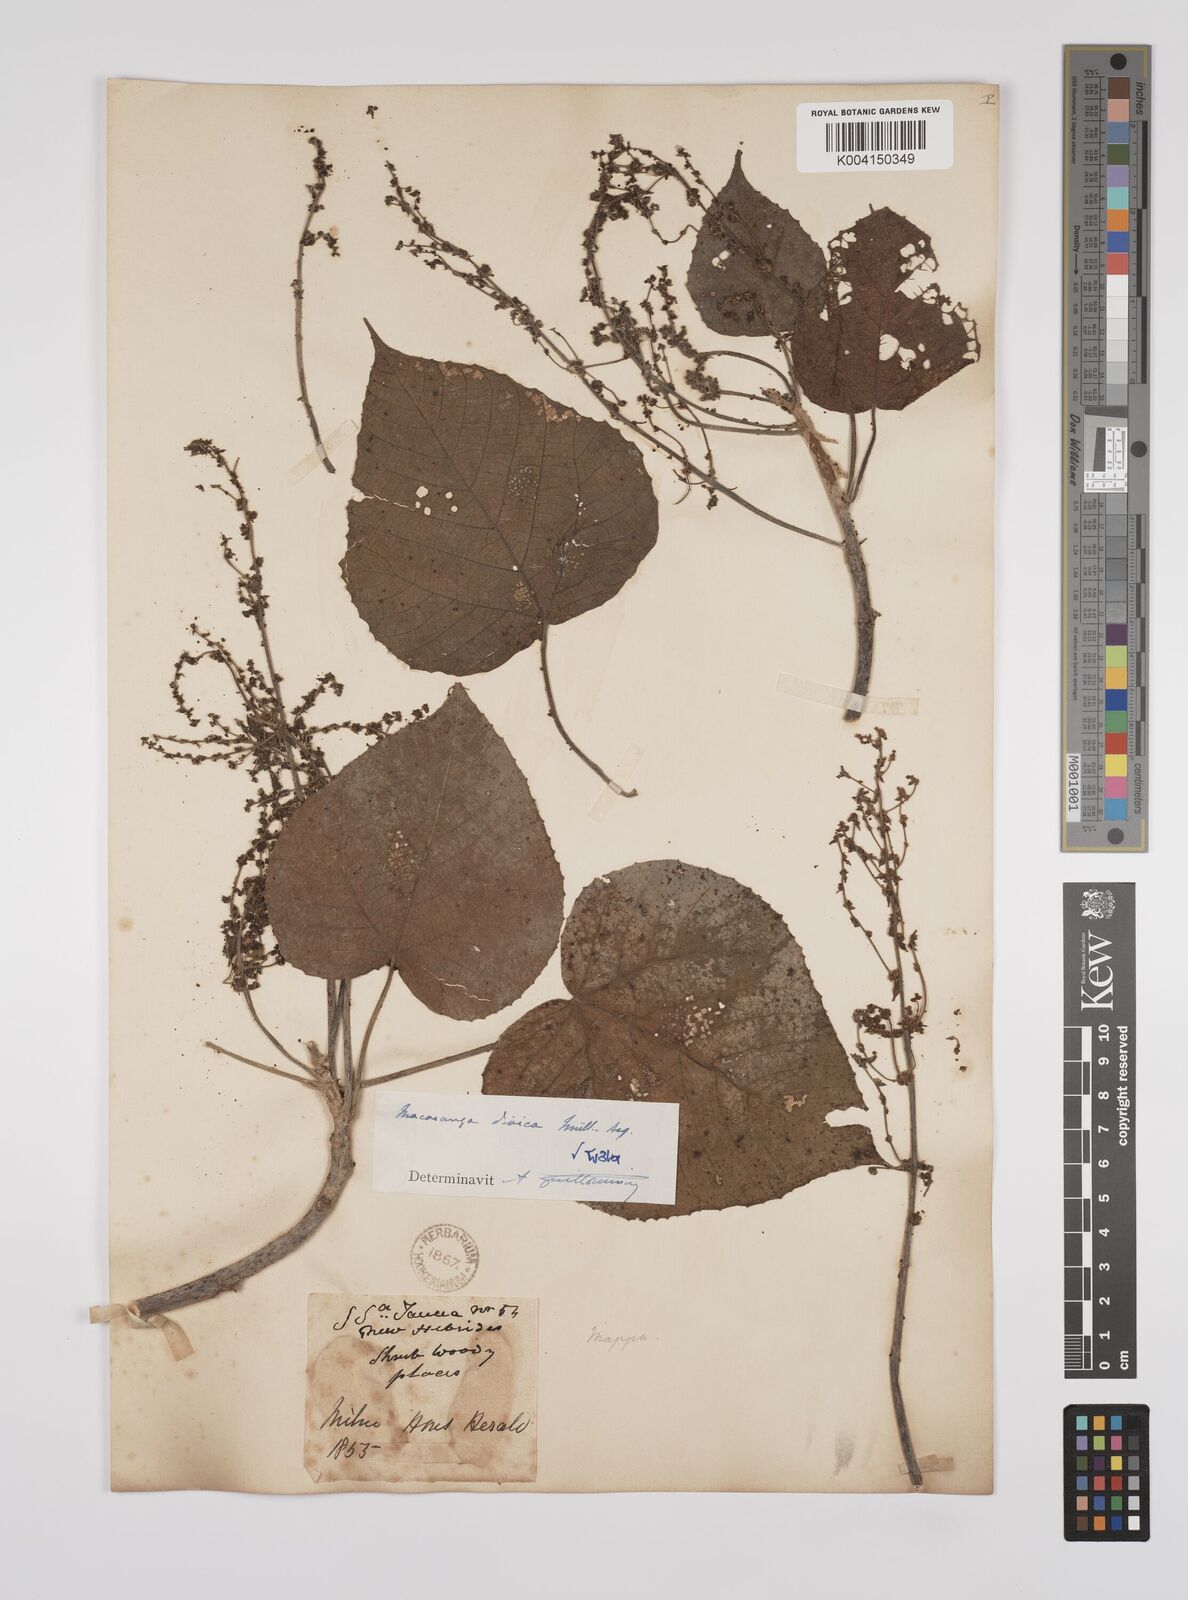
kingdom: Plantae
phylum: Tracheophyta
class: Magnoliopsida
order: Malpighiales
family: Euphorbiaceae
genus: Macaranga
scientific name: Macaranga dioica
